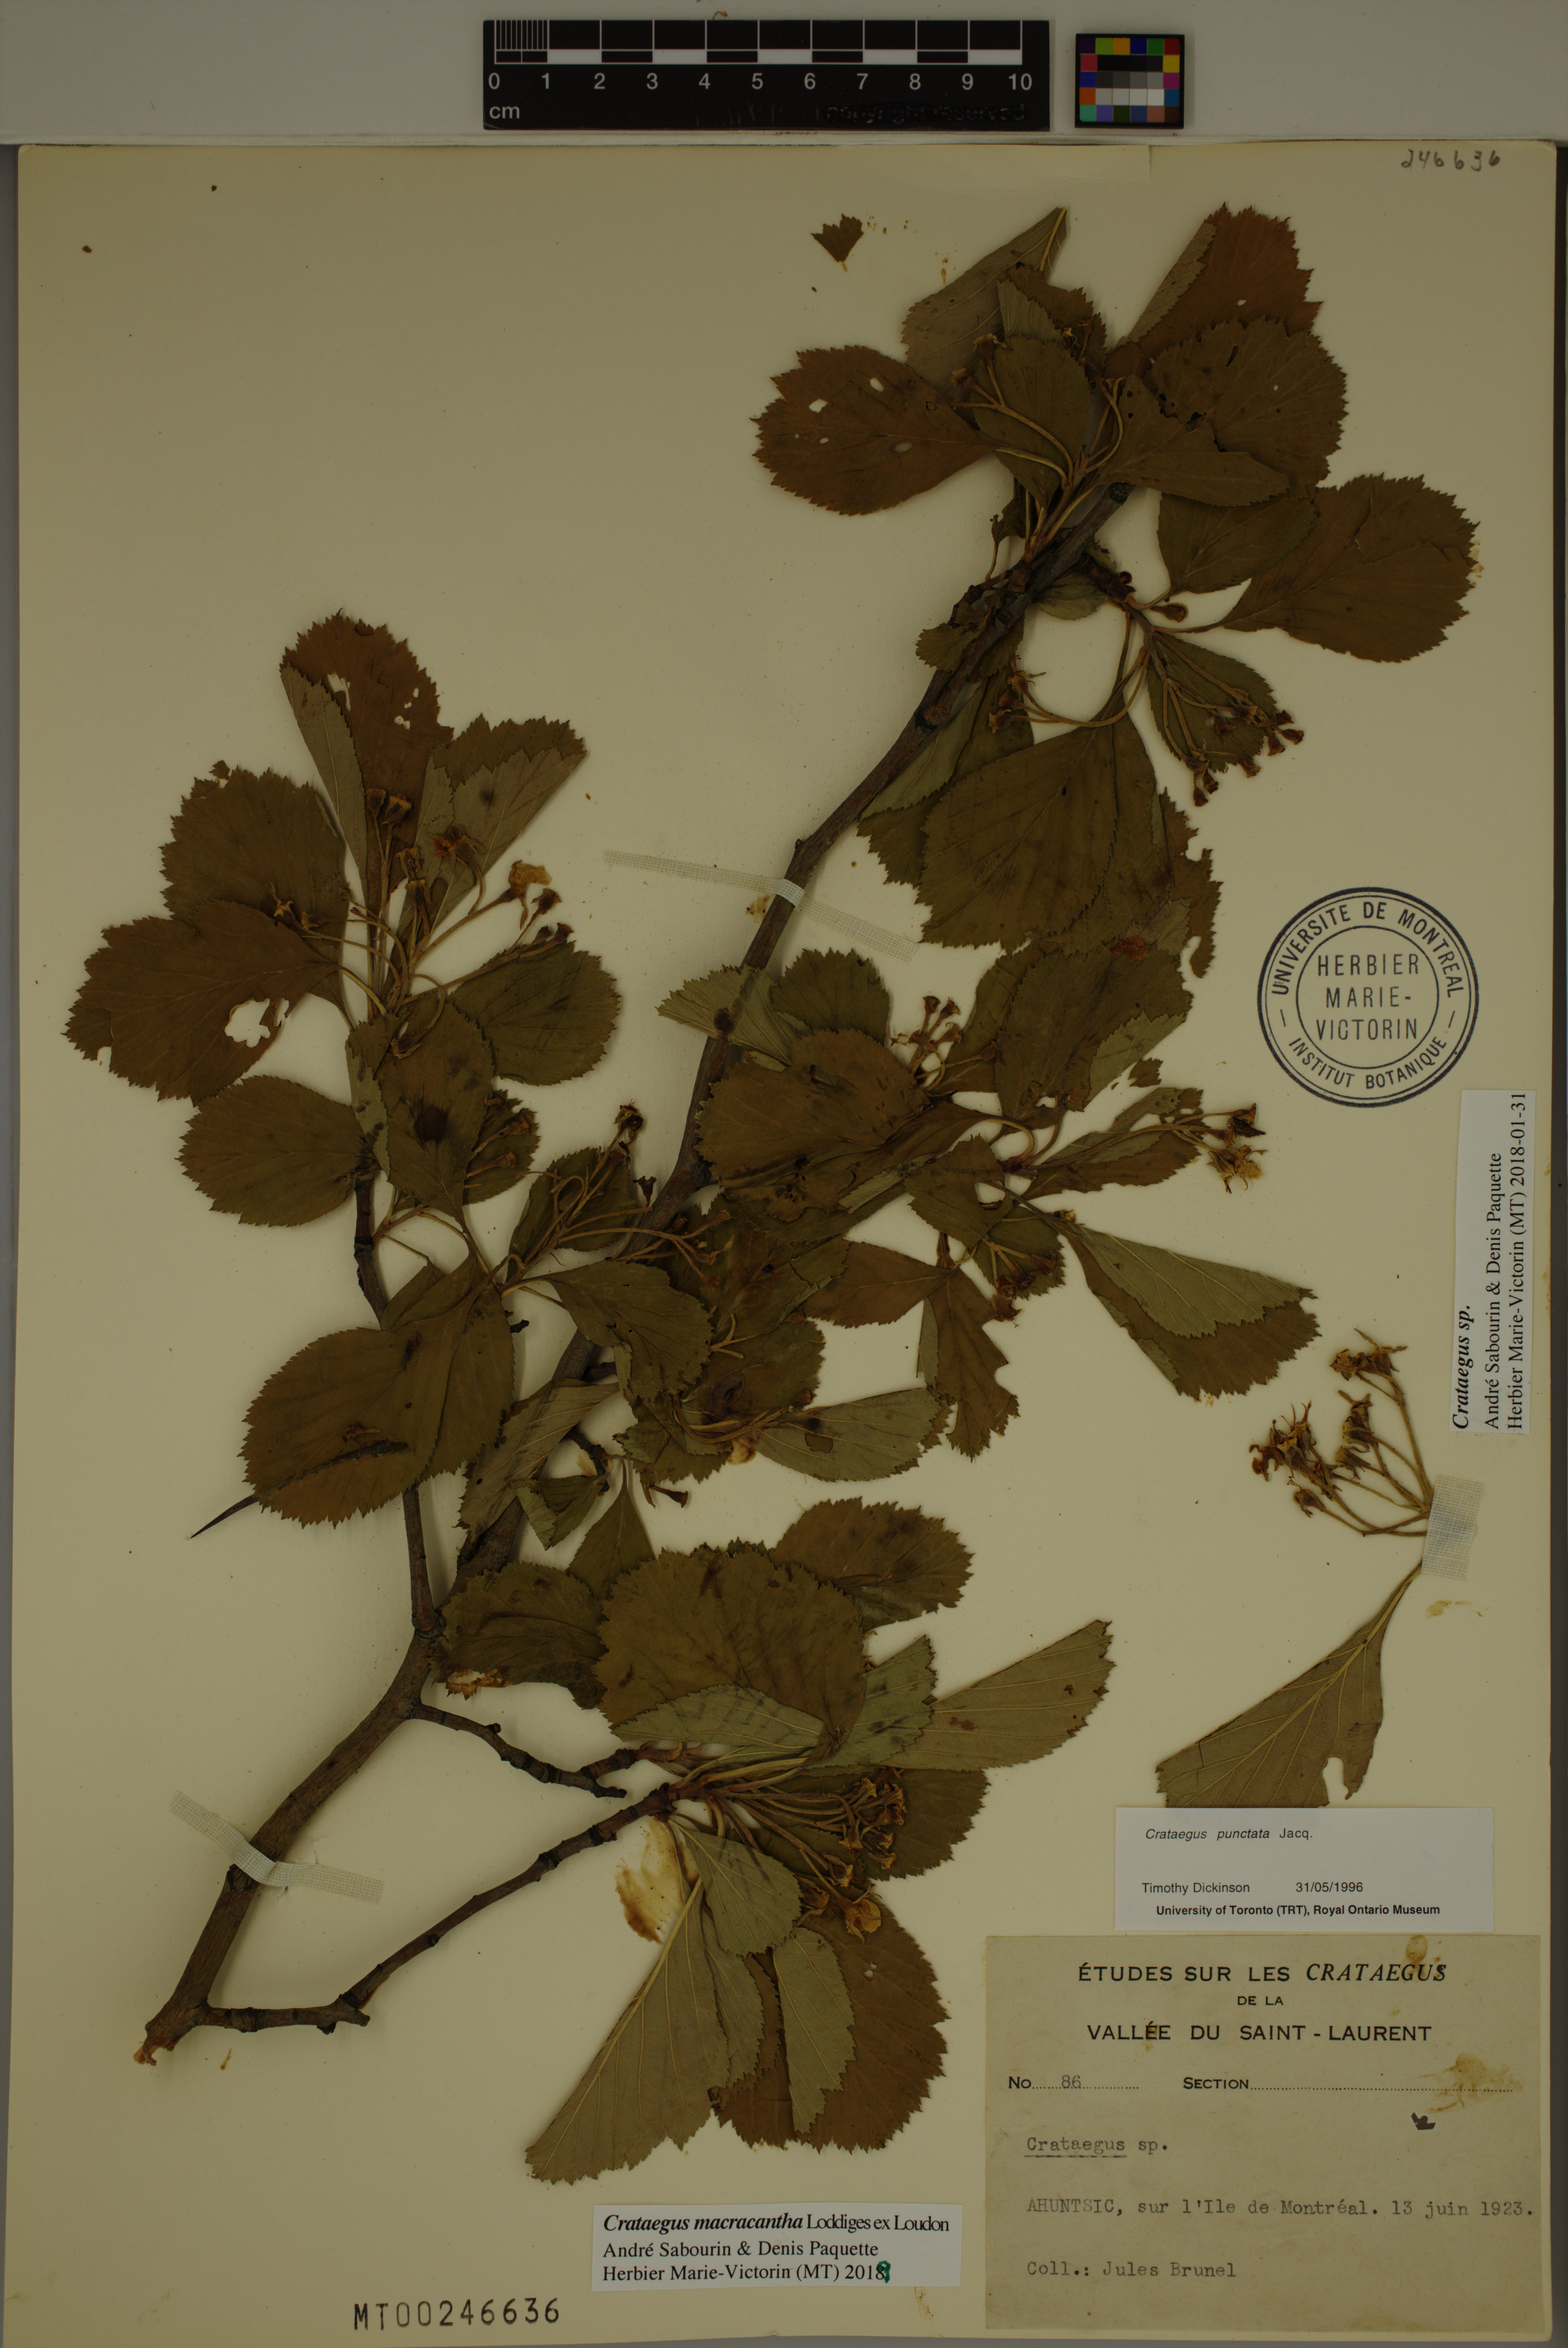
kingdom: Plantae
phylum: Tracheophyta
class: Magnoliopsida
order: Rosales
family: Rosaceae
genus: Crataegus
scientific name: Crataegus macracantha
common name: Large-thorn hawthorn
